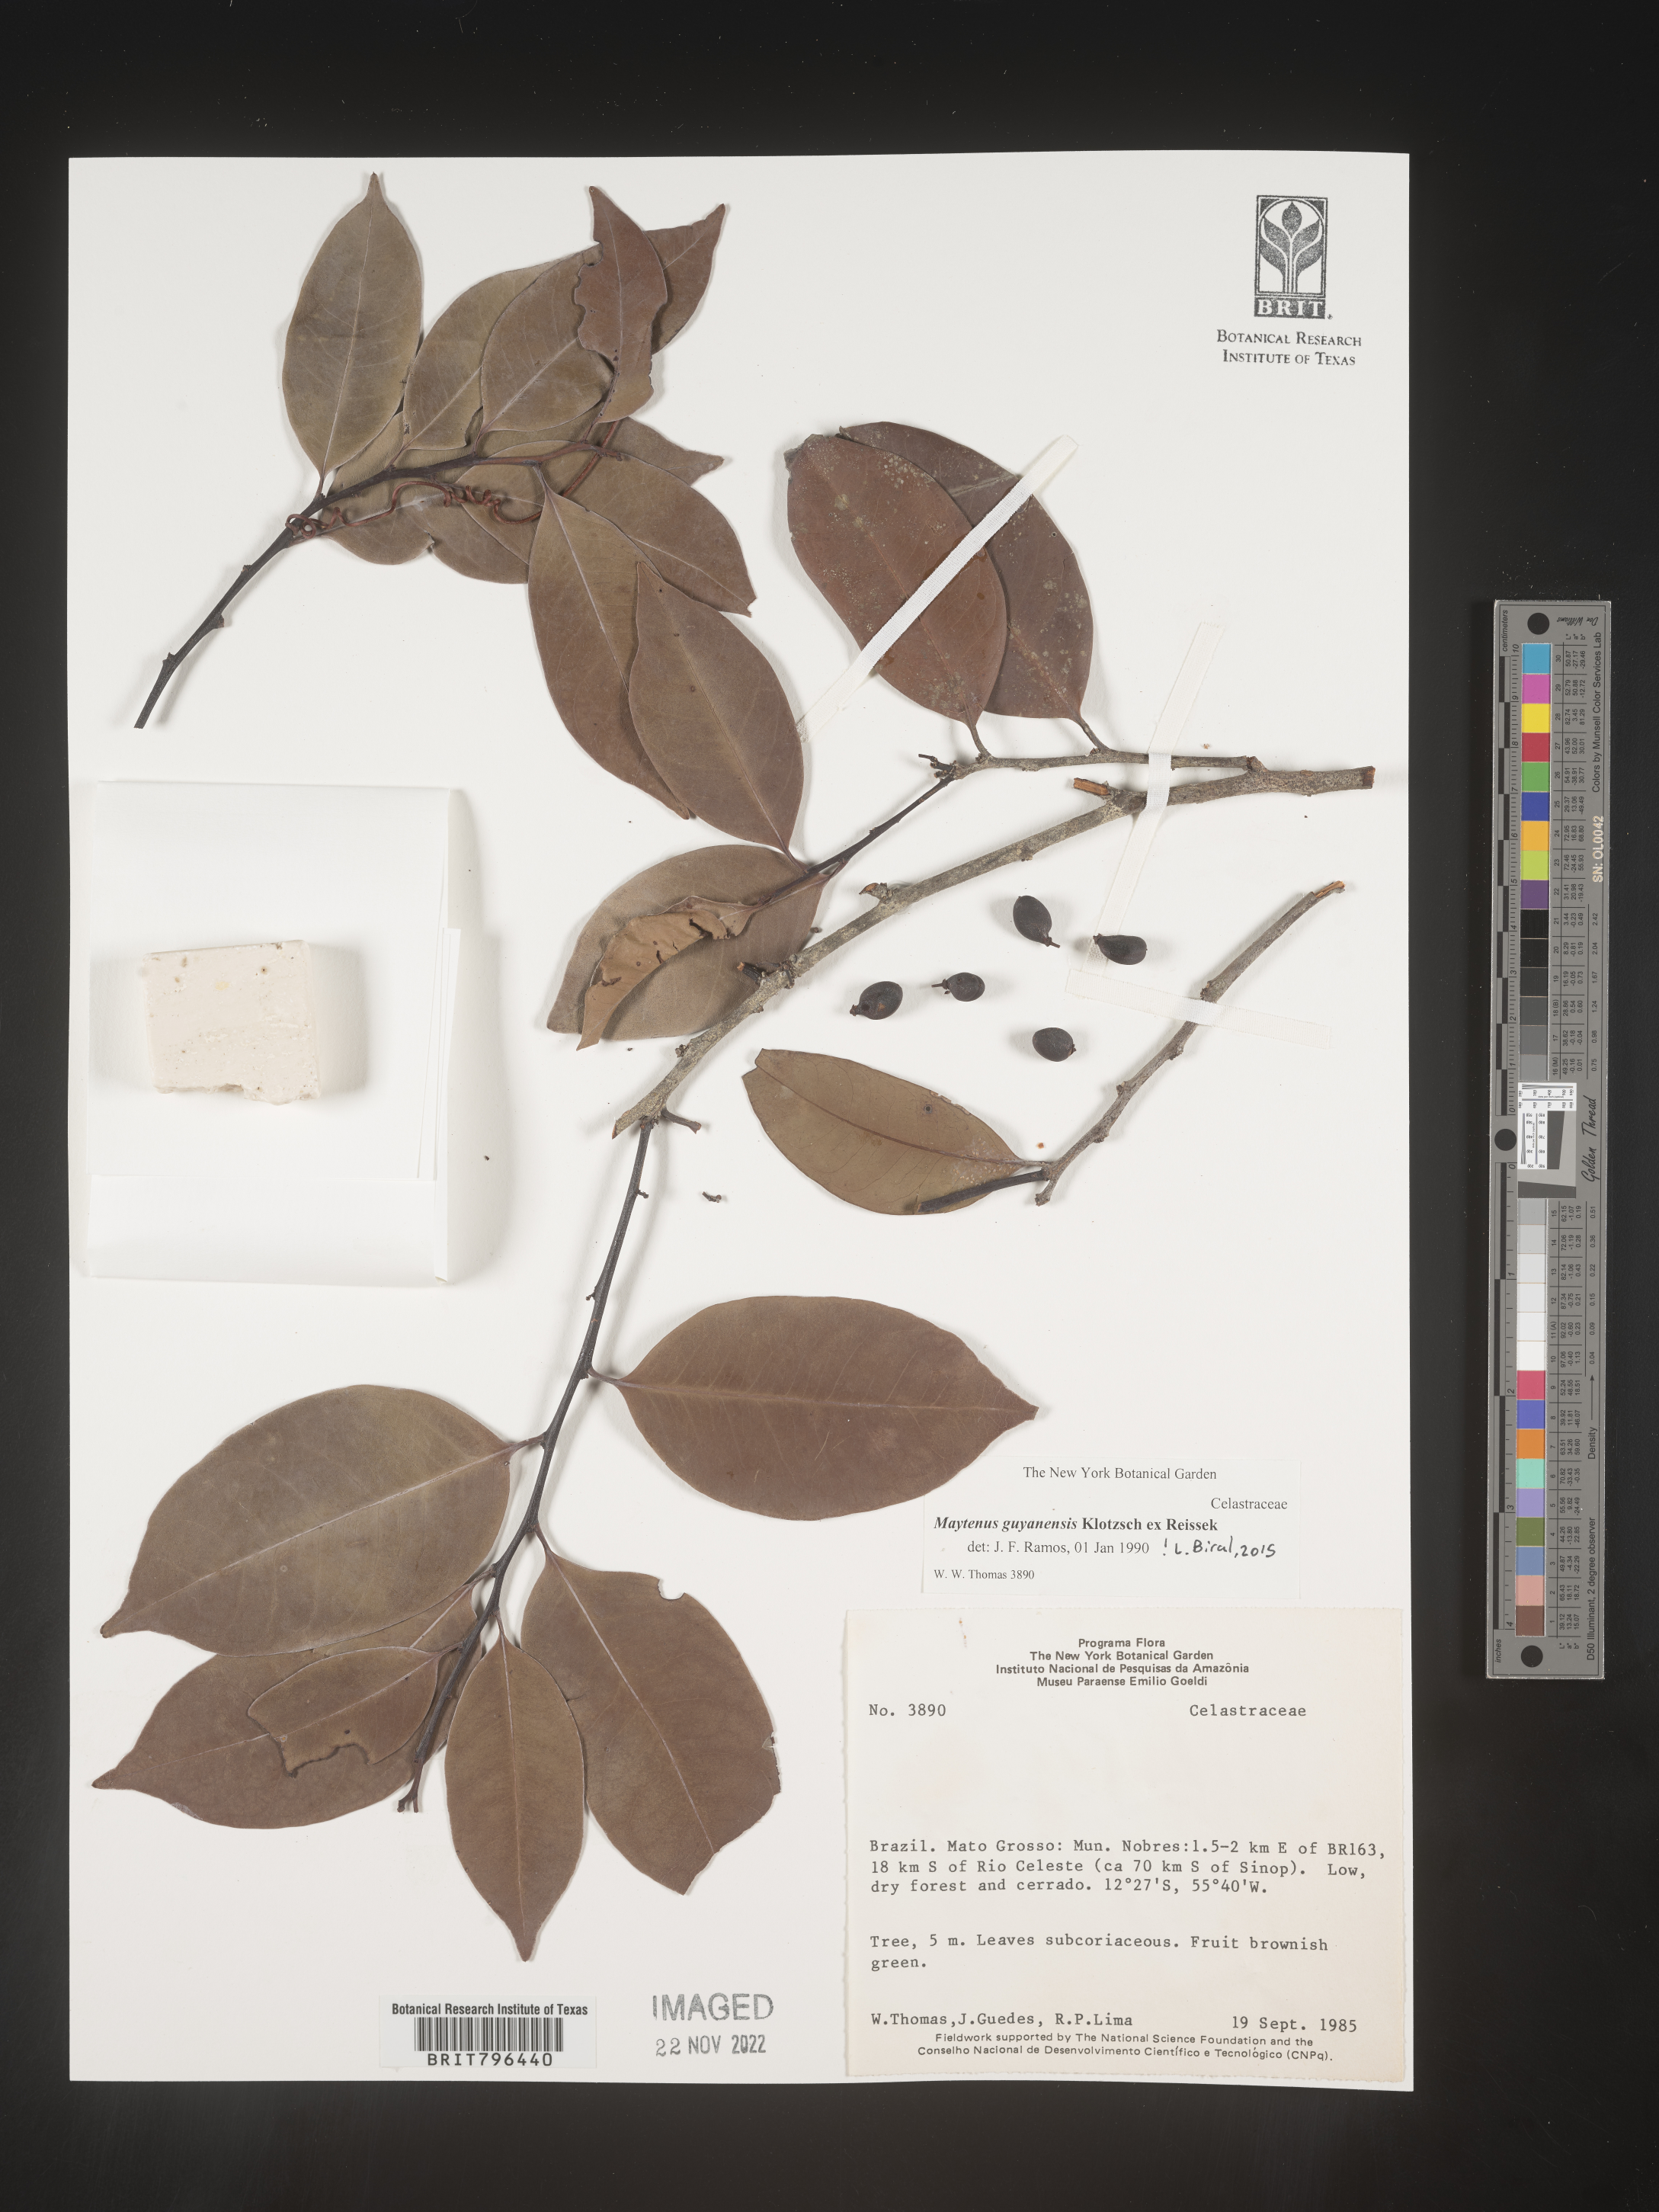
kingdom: Plantae
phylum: Tracheophyta
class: Magnoliopsida
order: Celastrales
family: Celastraceae
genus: Maytenus
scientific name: Maytenus
